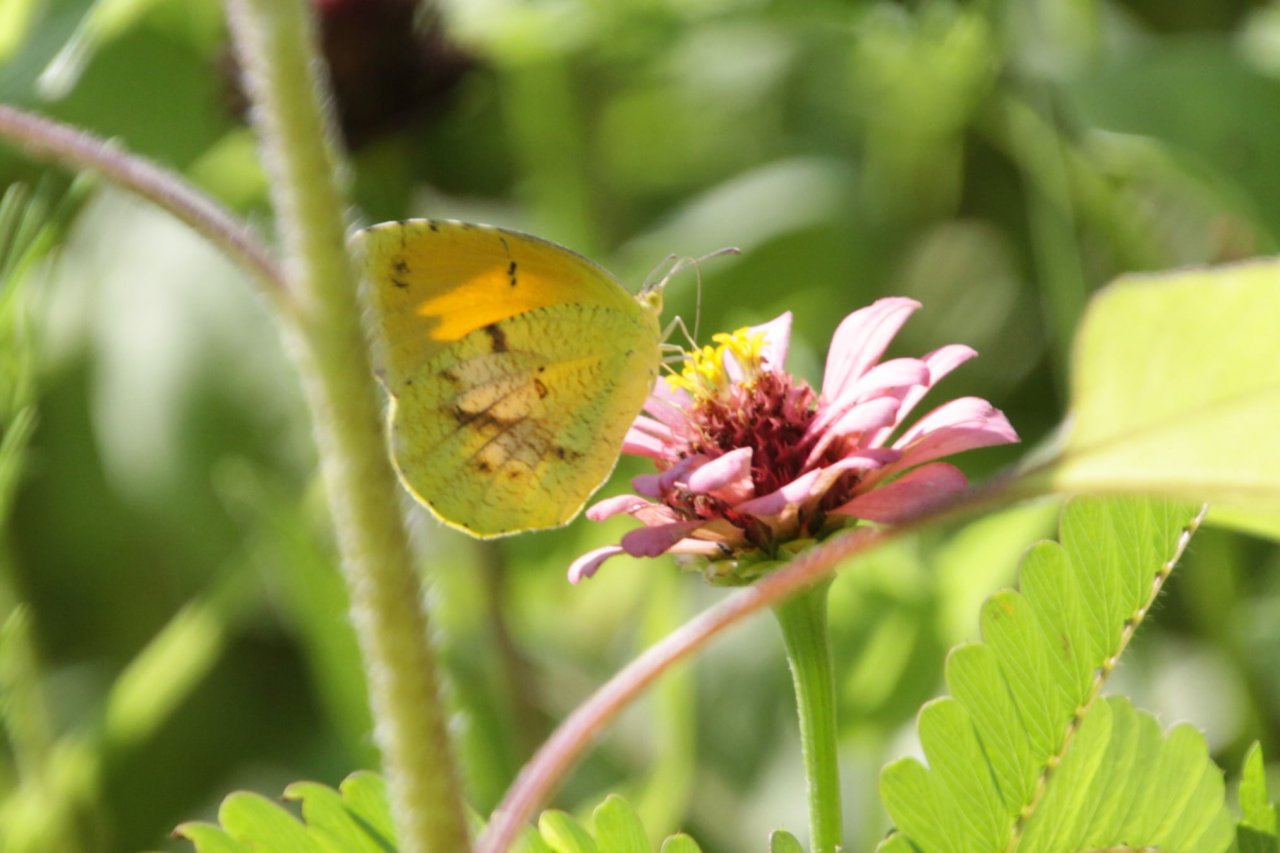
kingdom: Animalia
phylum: Arthropoda
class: Insecta
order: Lepidoptera
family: Pieridae
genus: Abaeis
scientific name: Abaeis nicippe
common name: Sleepy Orange
